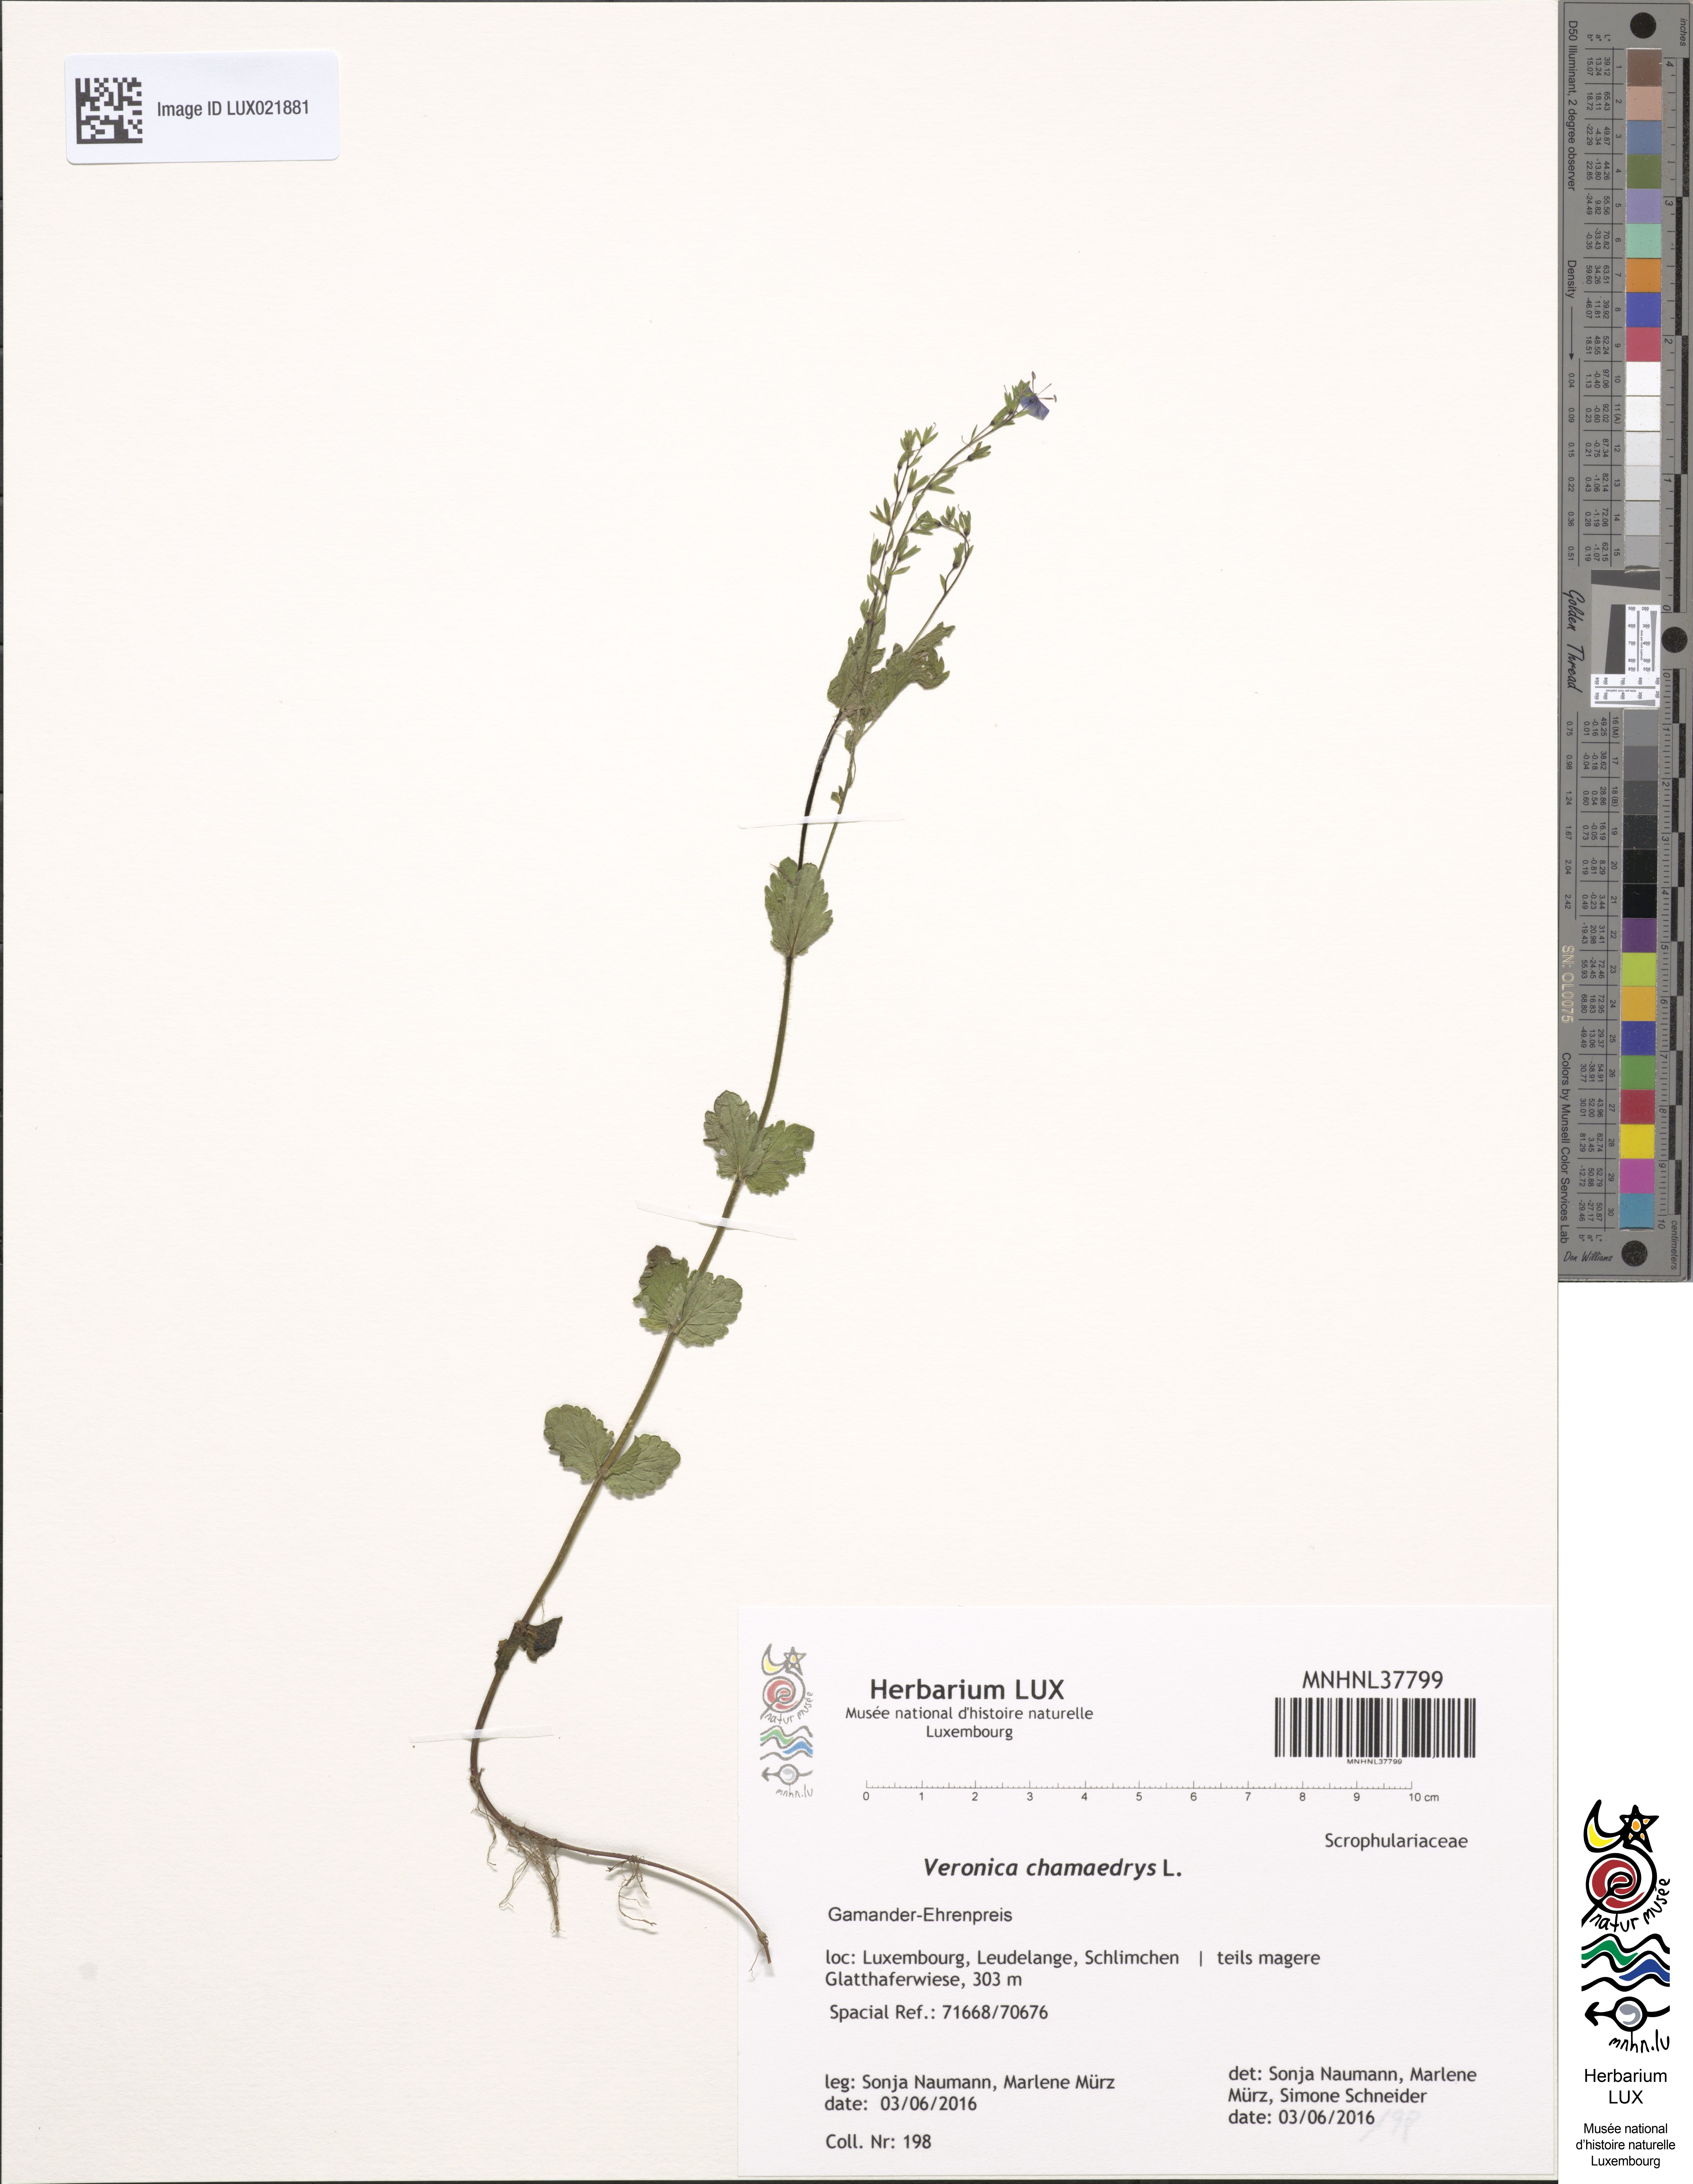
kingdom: Plantae
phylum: Tracheophyta
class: Magnoliopsida
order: Lamiales
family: Plantaginaceae
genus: Veronica
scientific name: Veronica chamaedrys
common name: Germander speedwell
